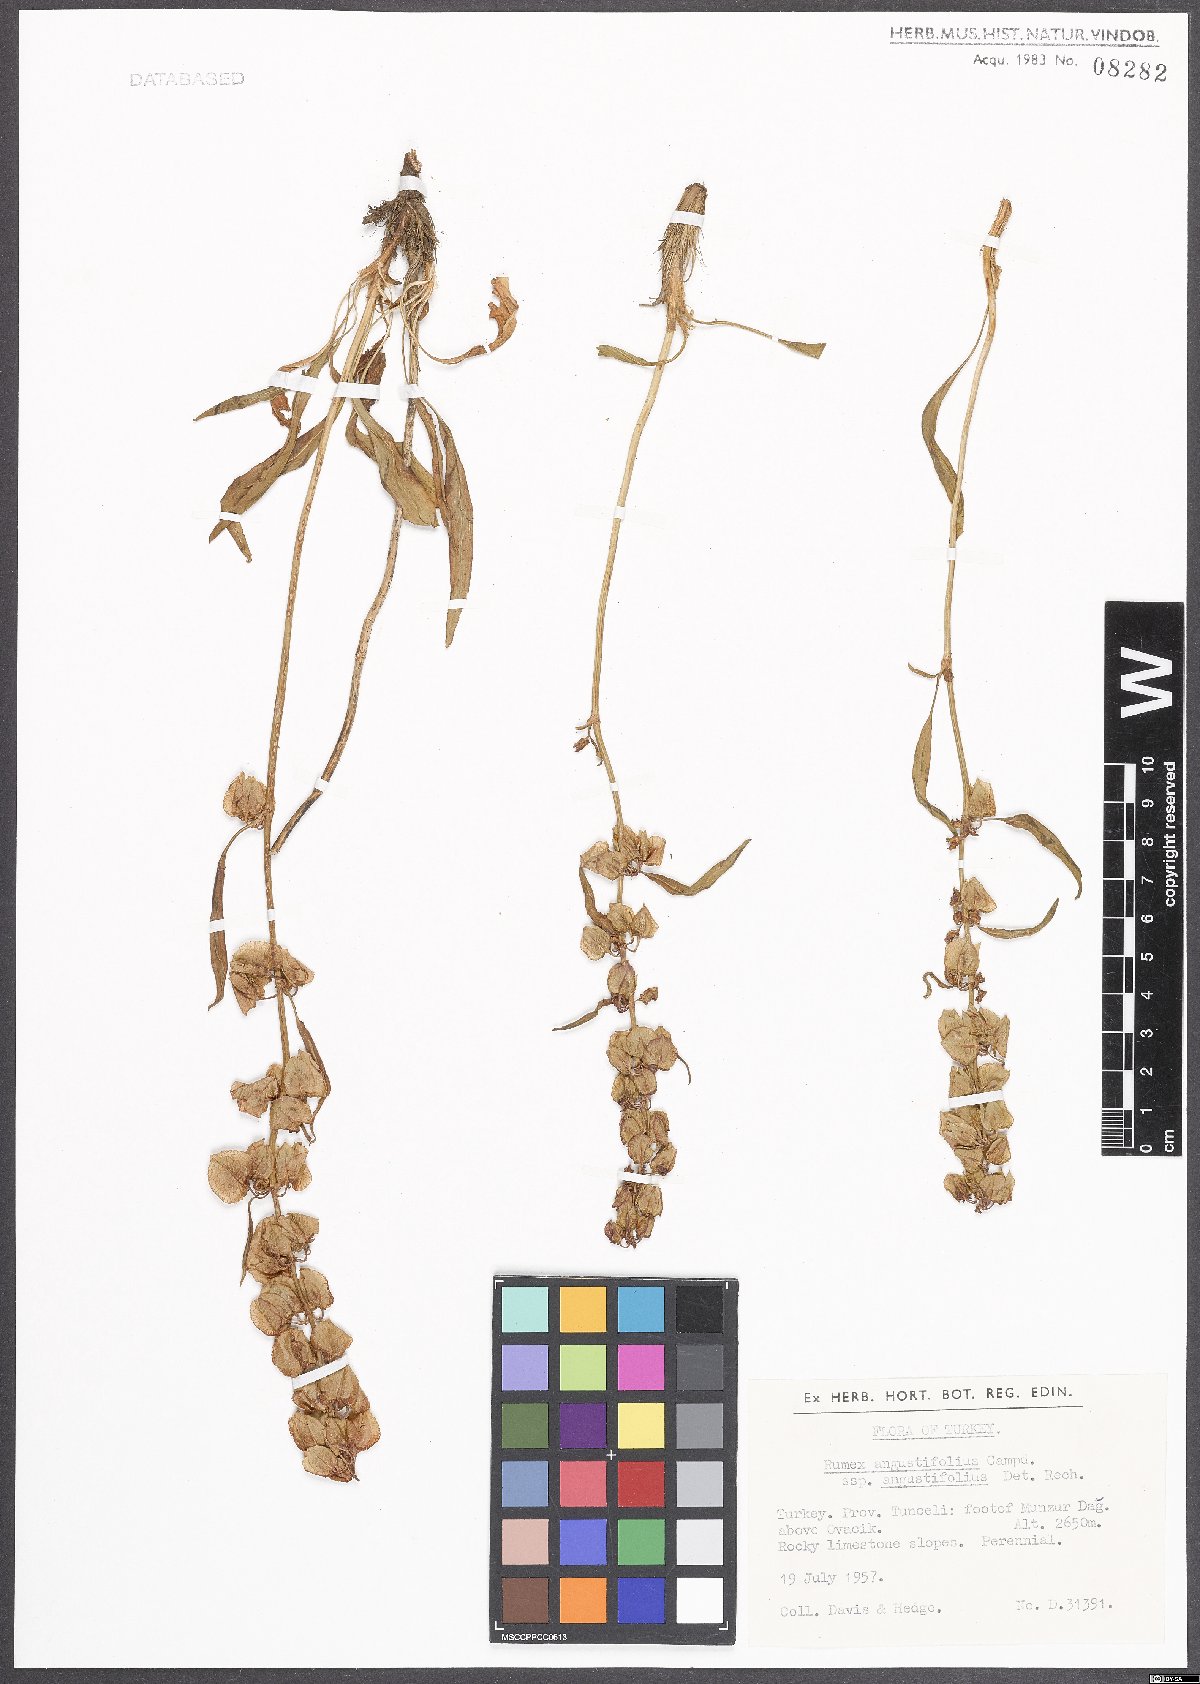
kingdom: Plantae
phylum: Tracheophyta
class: Magnoliopsida
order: Caryophyllales
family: Polygonaceae
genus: Rumex
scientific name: Rumex angustifolius
